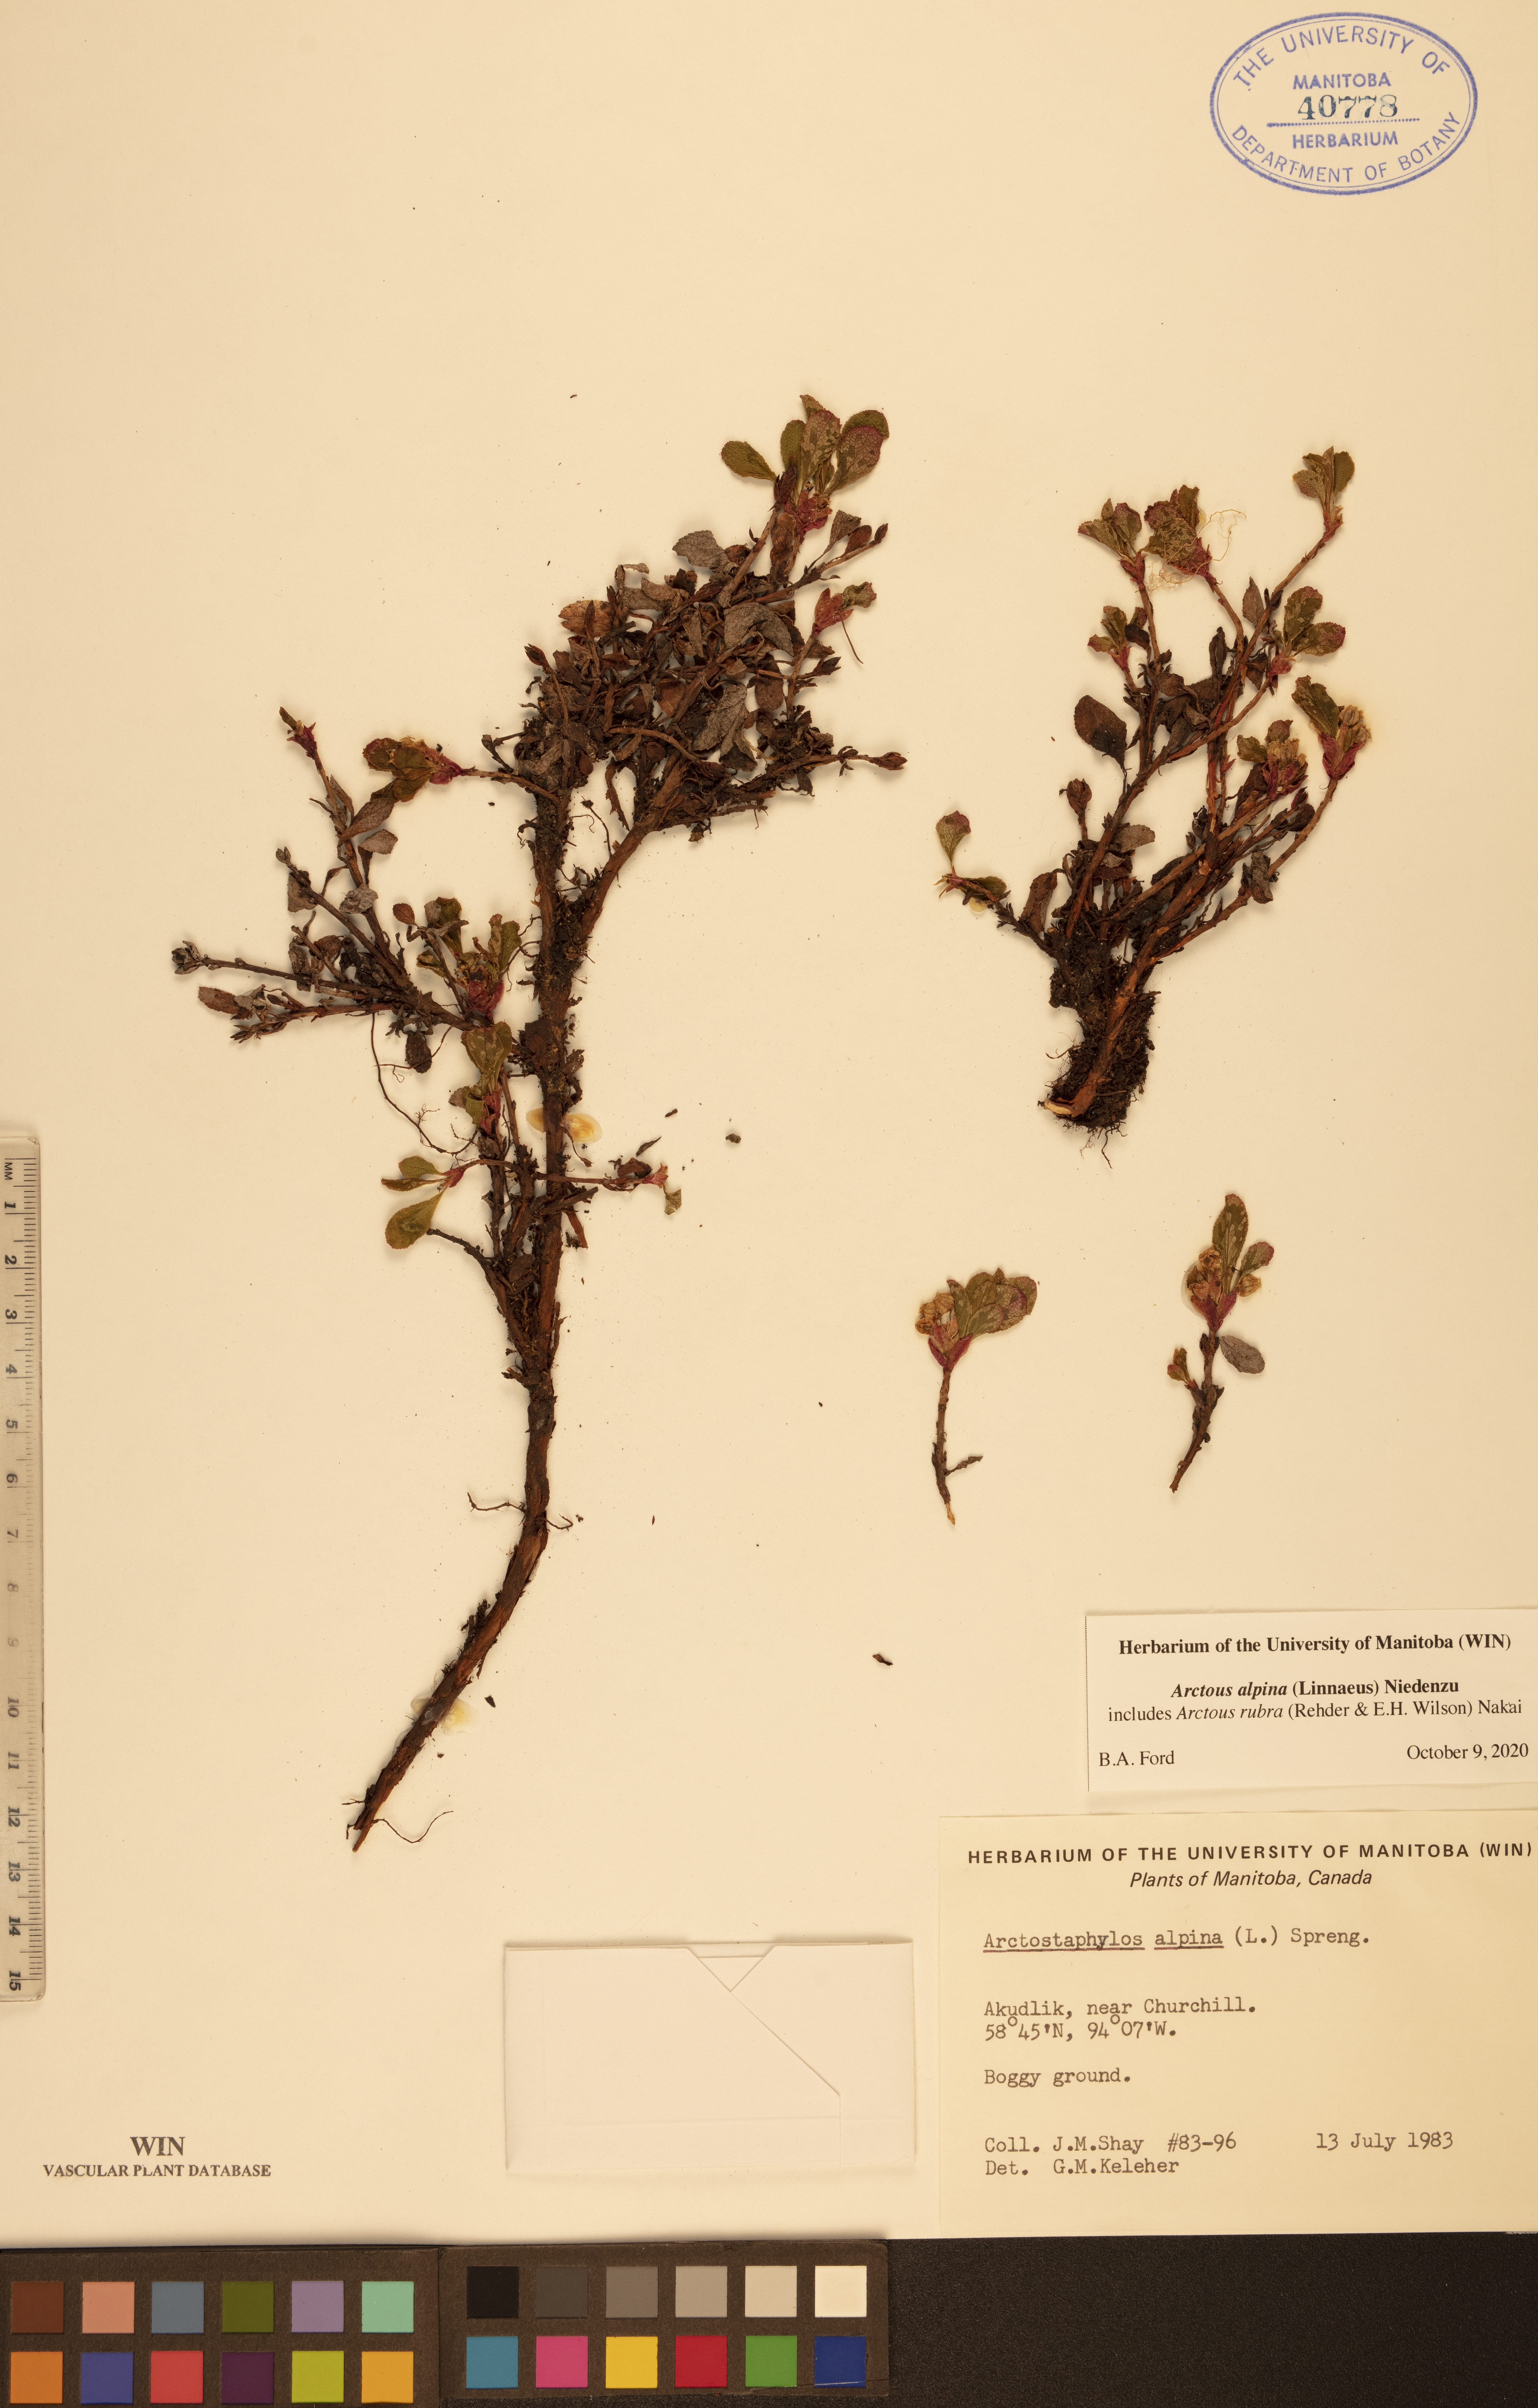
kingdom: Plantae
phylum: Tracheophyta
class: Magnoliopsida
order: Ericales
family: Ericaceae
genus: Arctostaphylos
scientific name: Arctostaphylos alpinus
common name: Alpine bearberry
